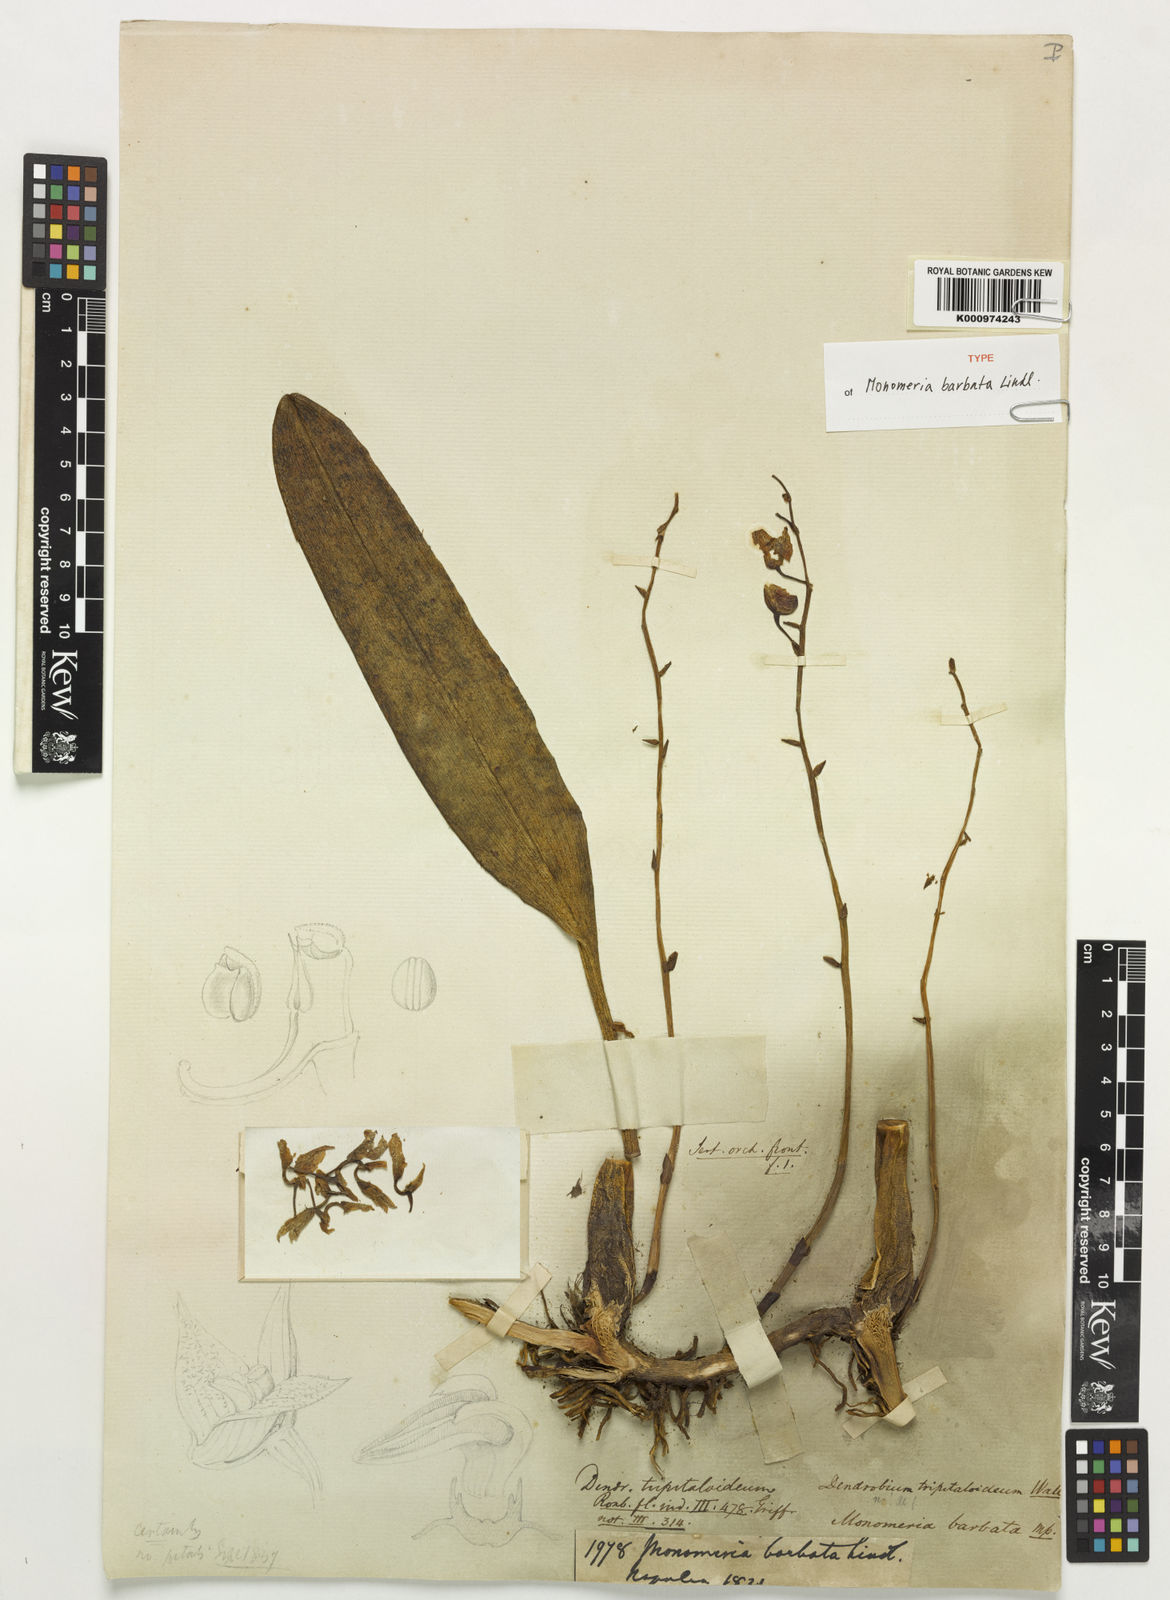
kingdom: Plantae
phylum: Tracheophyta
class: Liliopsida
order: Asparagales
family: Orchidaceae
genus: Bulbophyllum
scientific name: Bulbophyllum crabro
